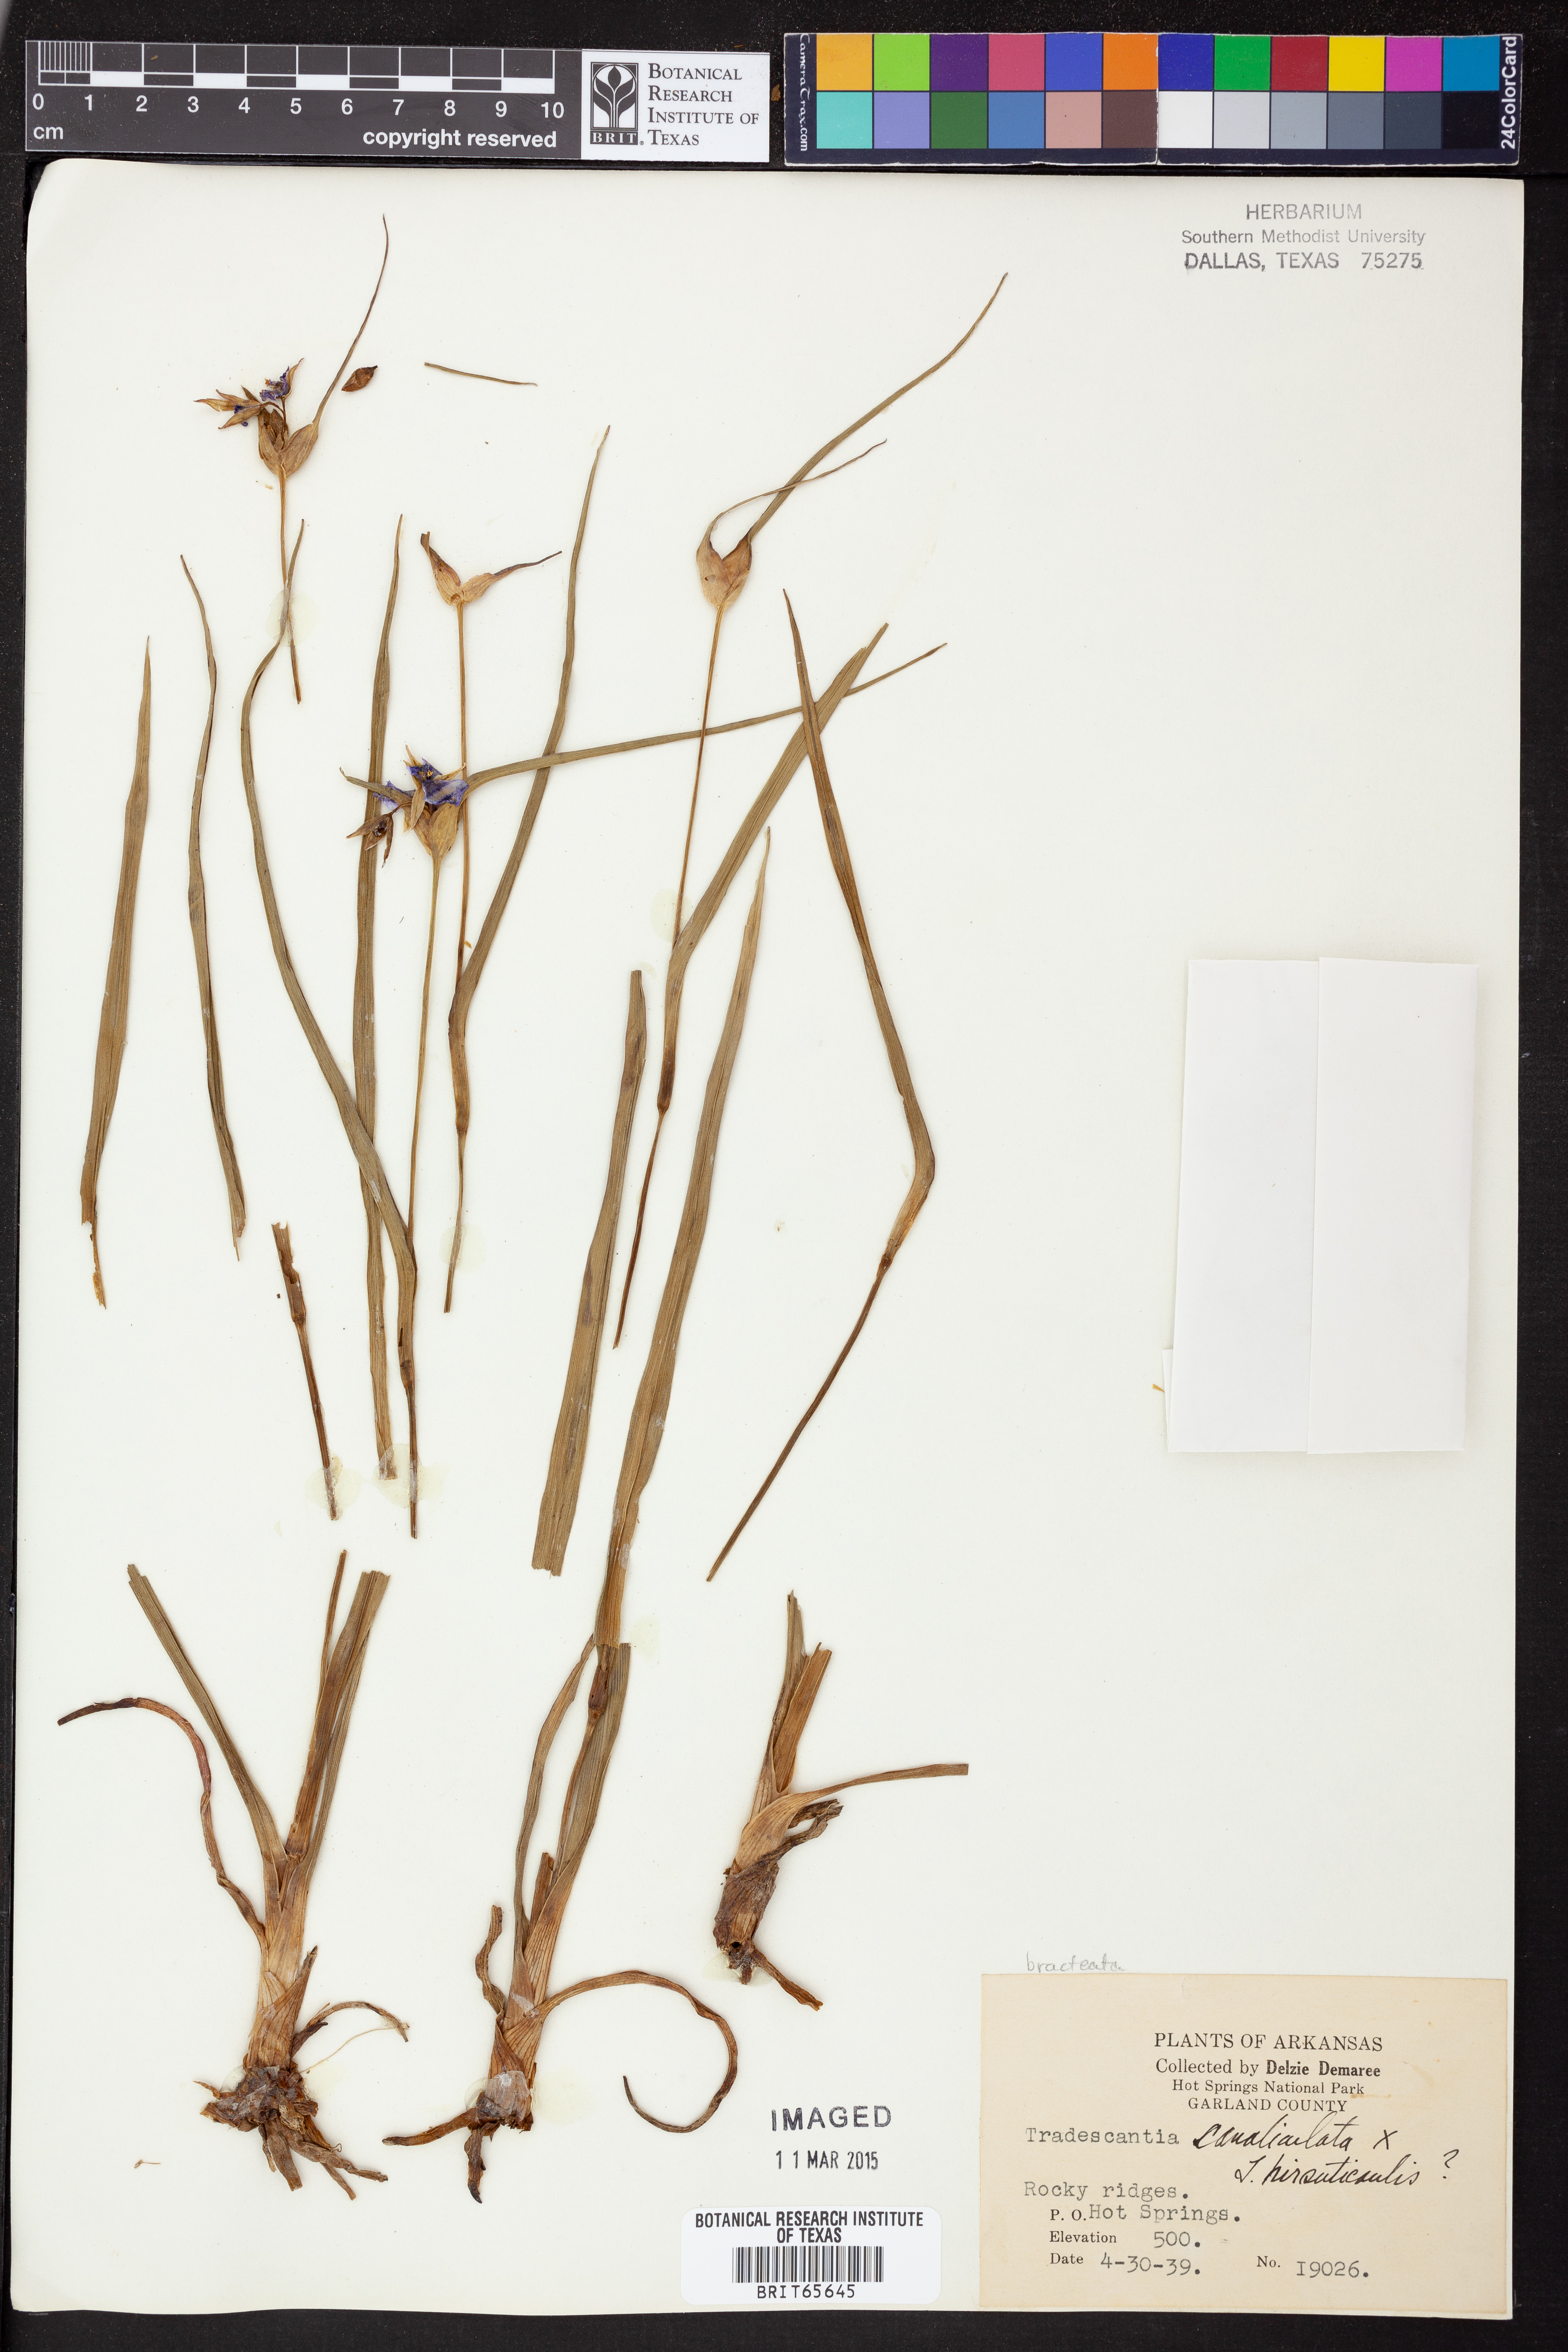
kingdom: Plantae
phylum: Tracheophyta
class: Liliopsida
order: Commelinales
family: Commelinaceae
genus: Tradescantia
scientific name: Tradescantia ohiensis
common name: Ohio spiderwort
